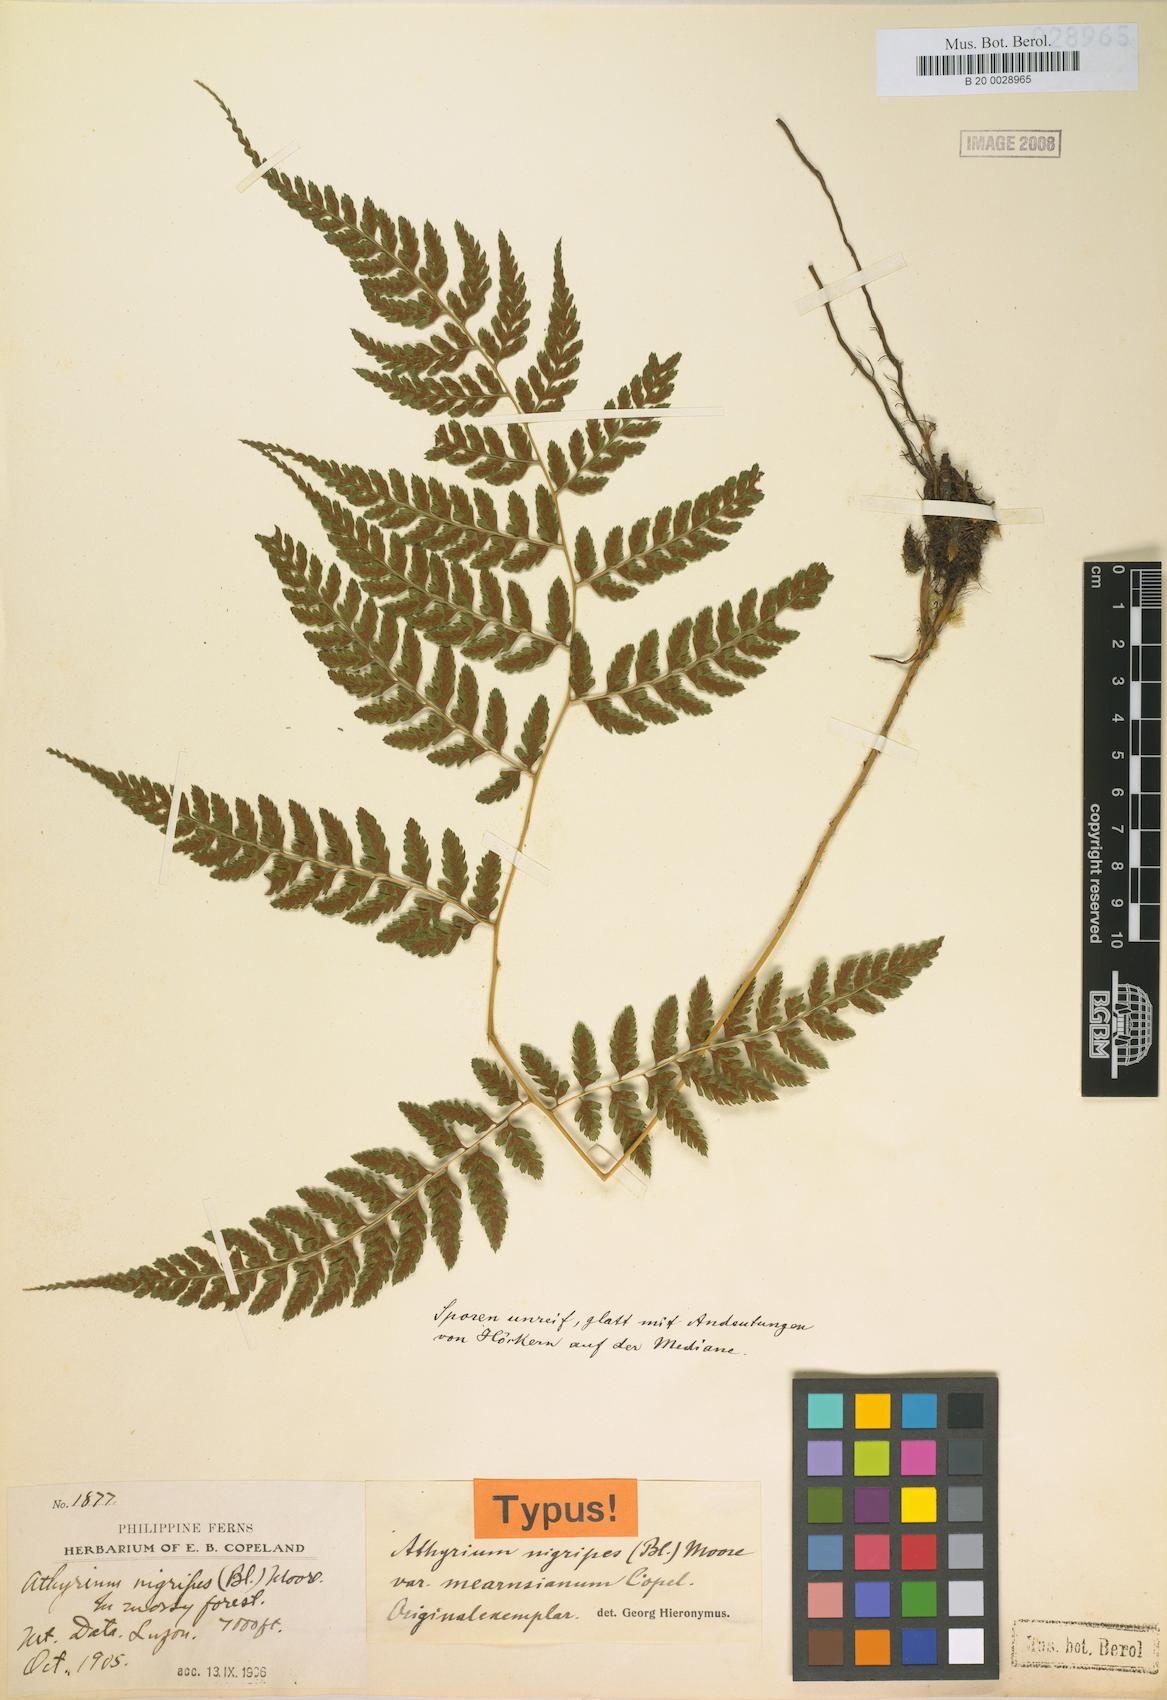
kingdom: Plantae
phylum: Tracheophyta
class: Polypodiopsida
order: Polypodiales
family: Athyriaceae
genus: Athyrium
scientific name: Athyrium nitidulum
